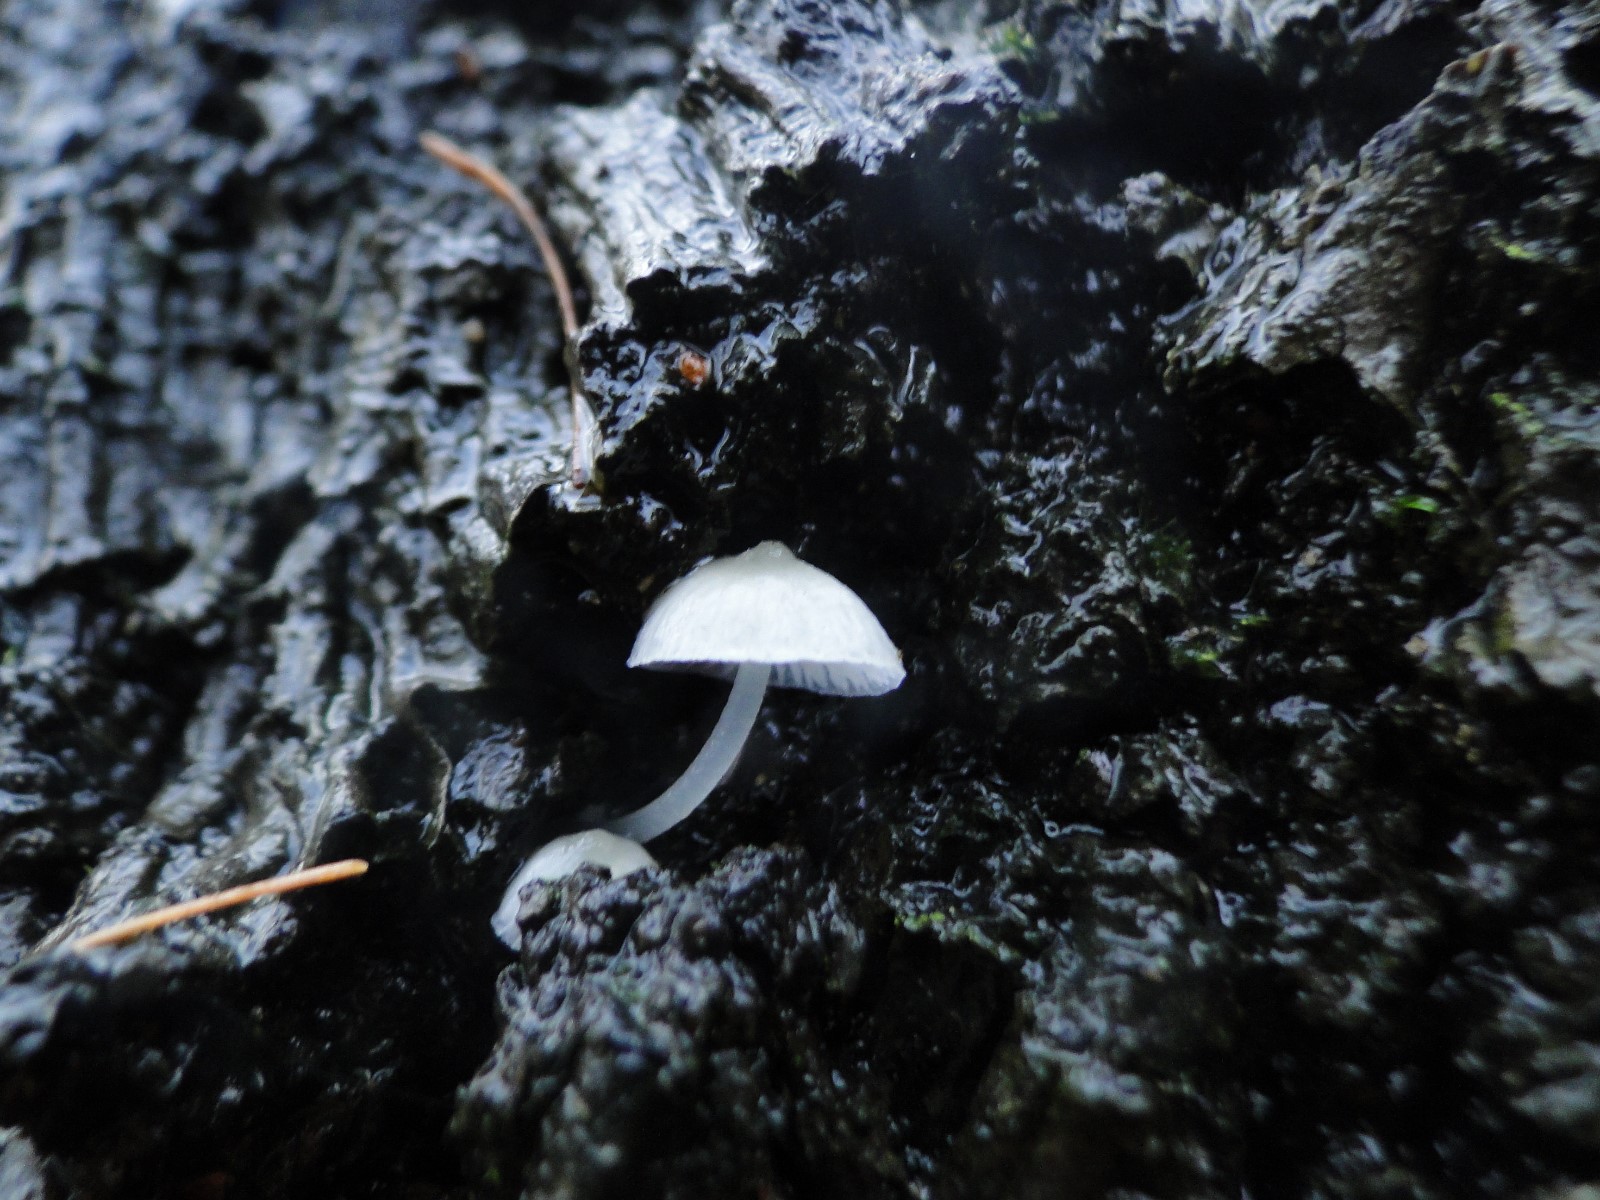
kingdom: Fungi
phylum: Basidiomycota
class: Agaricomycetes
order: Agaricales
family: Porotheleaceae
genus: Phloeomana
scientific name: Phloeomana minutula
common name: bleg huesvamp
